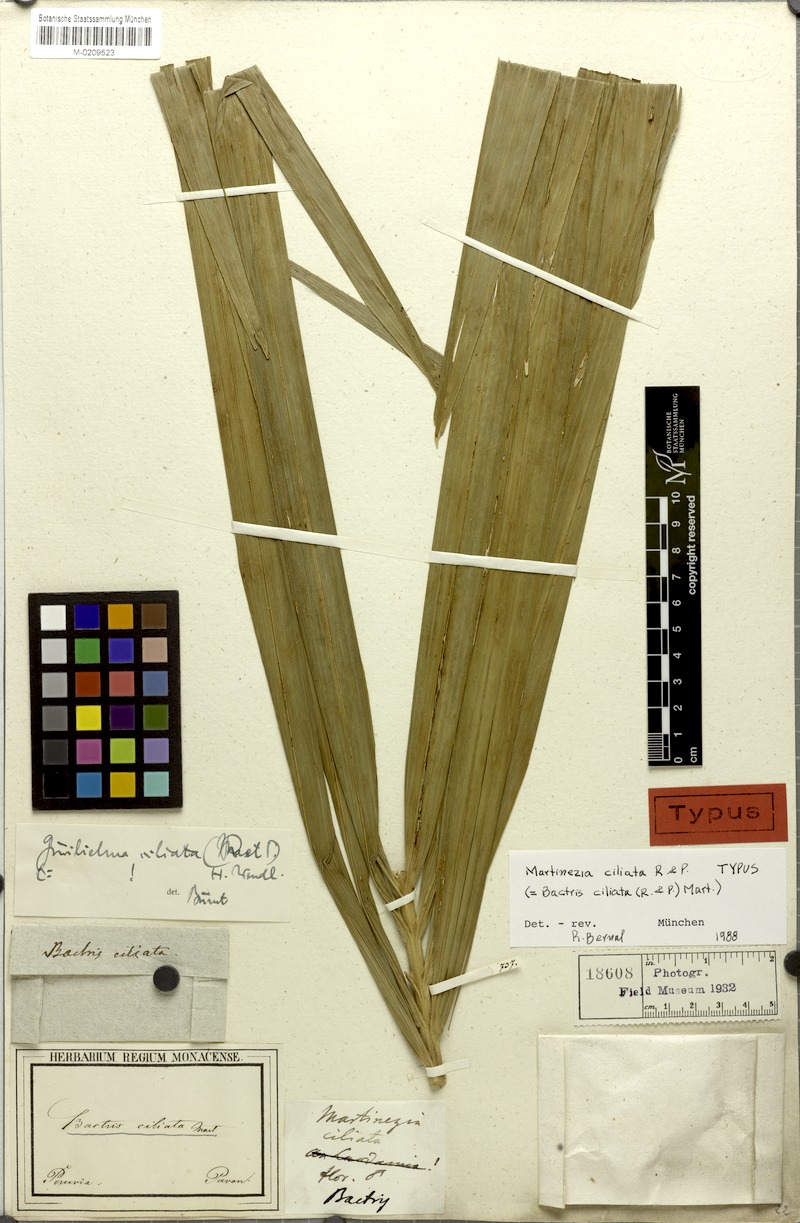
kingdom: Plantae
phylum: Tracheophyta
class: Liliopsida
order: Arecales
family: Arecaceae
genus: Bactris
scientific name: Bactris gasipaes
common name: Peach palm
